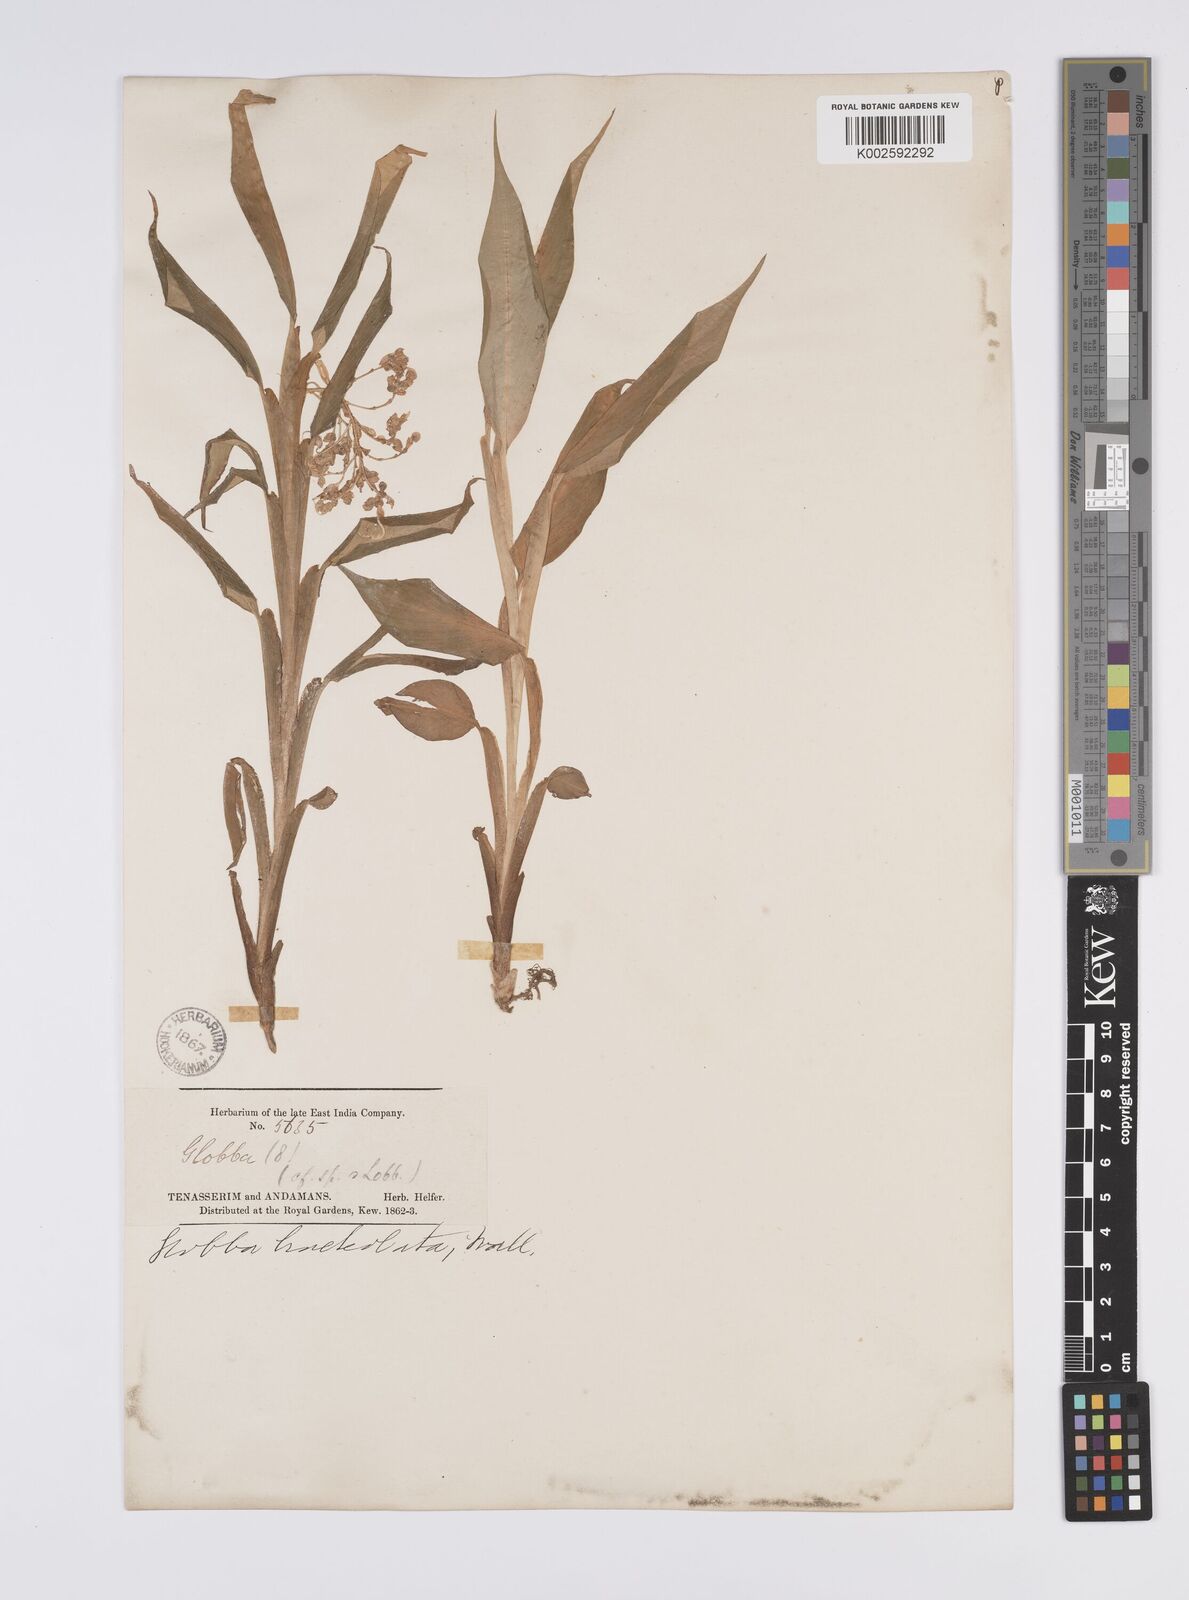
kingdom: Plantae
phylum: Tracheophyta
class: Liliopsida
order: Zingiberales
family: Zingiberaceae
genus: Globba
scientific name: Globba bracteolata
